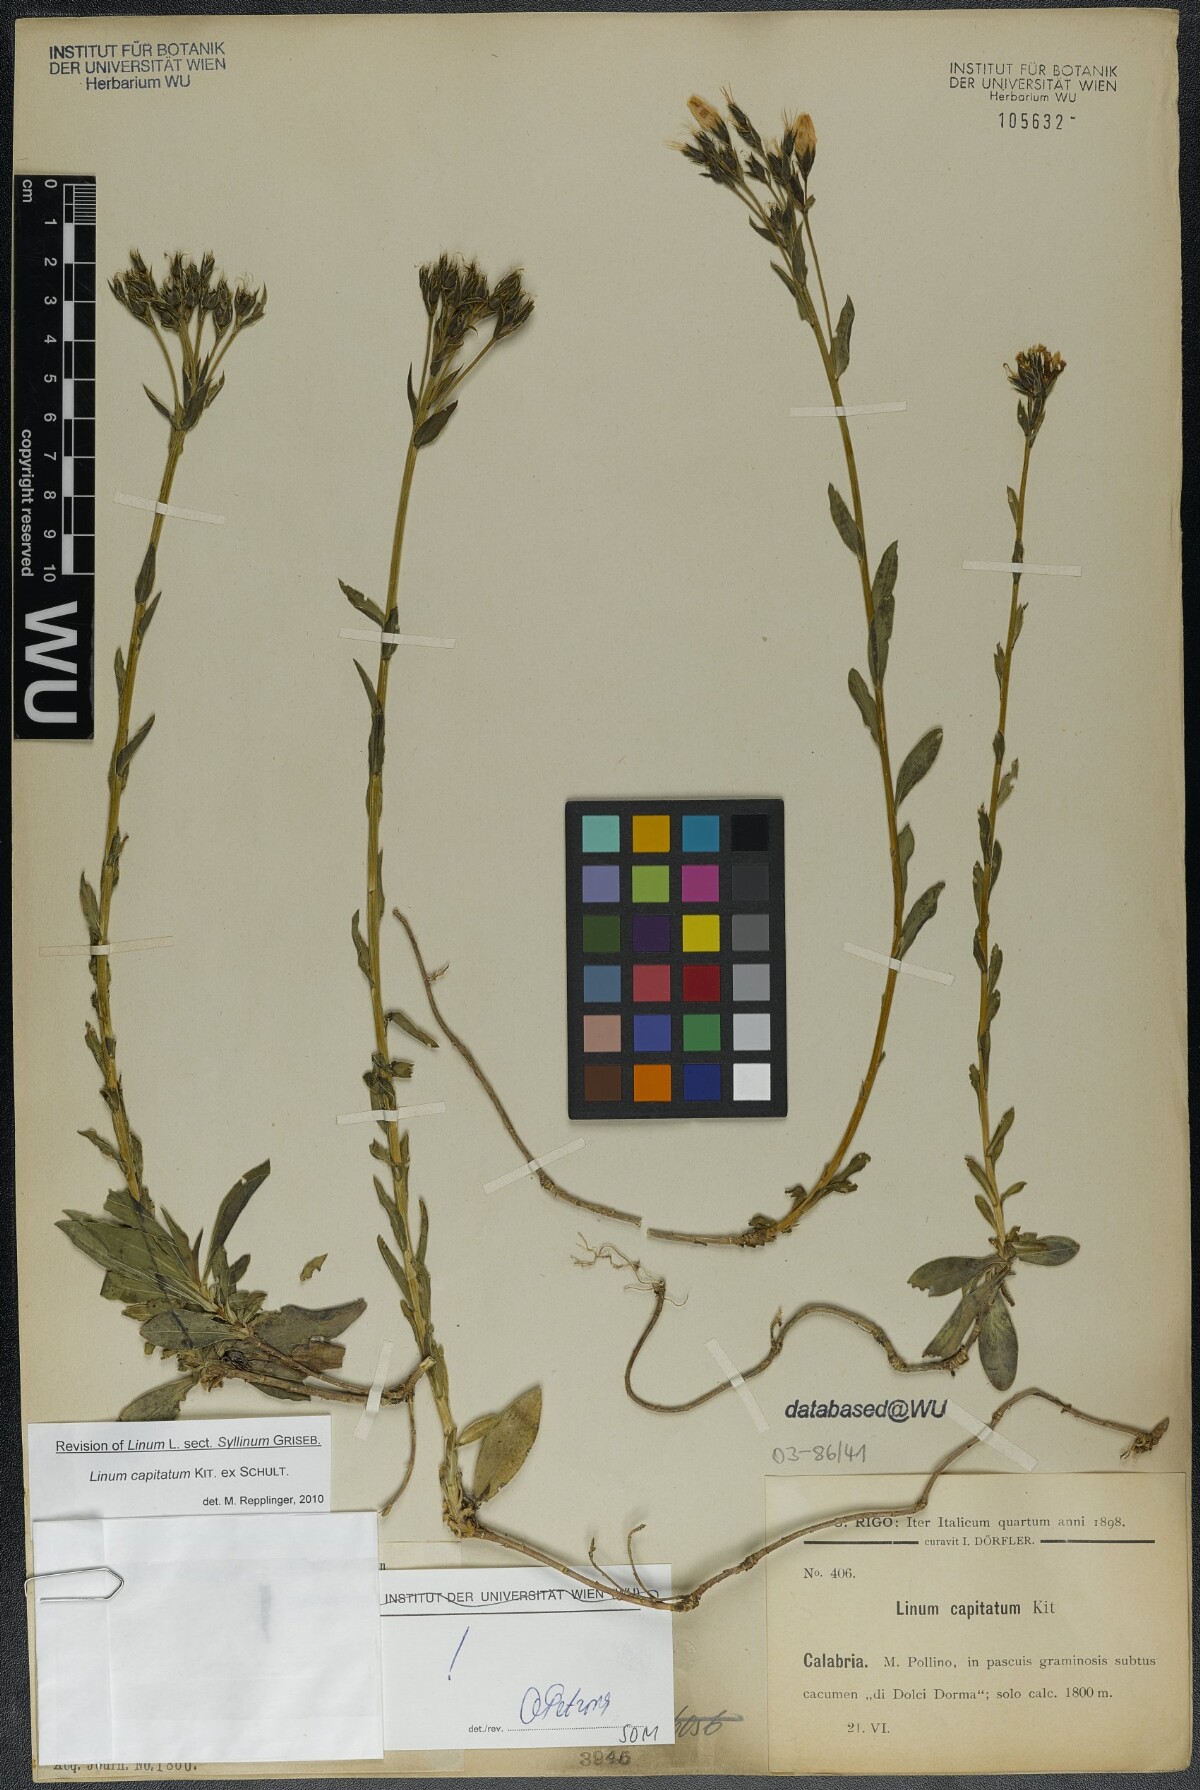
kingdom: Plantae
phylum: Tracheophyta
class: Magnoliopsida
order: Malpighiales
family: Linaceae
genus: Linum
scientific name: Linum capitatum
